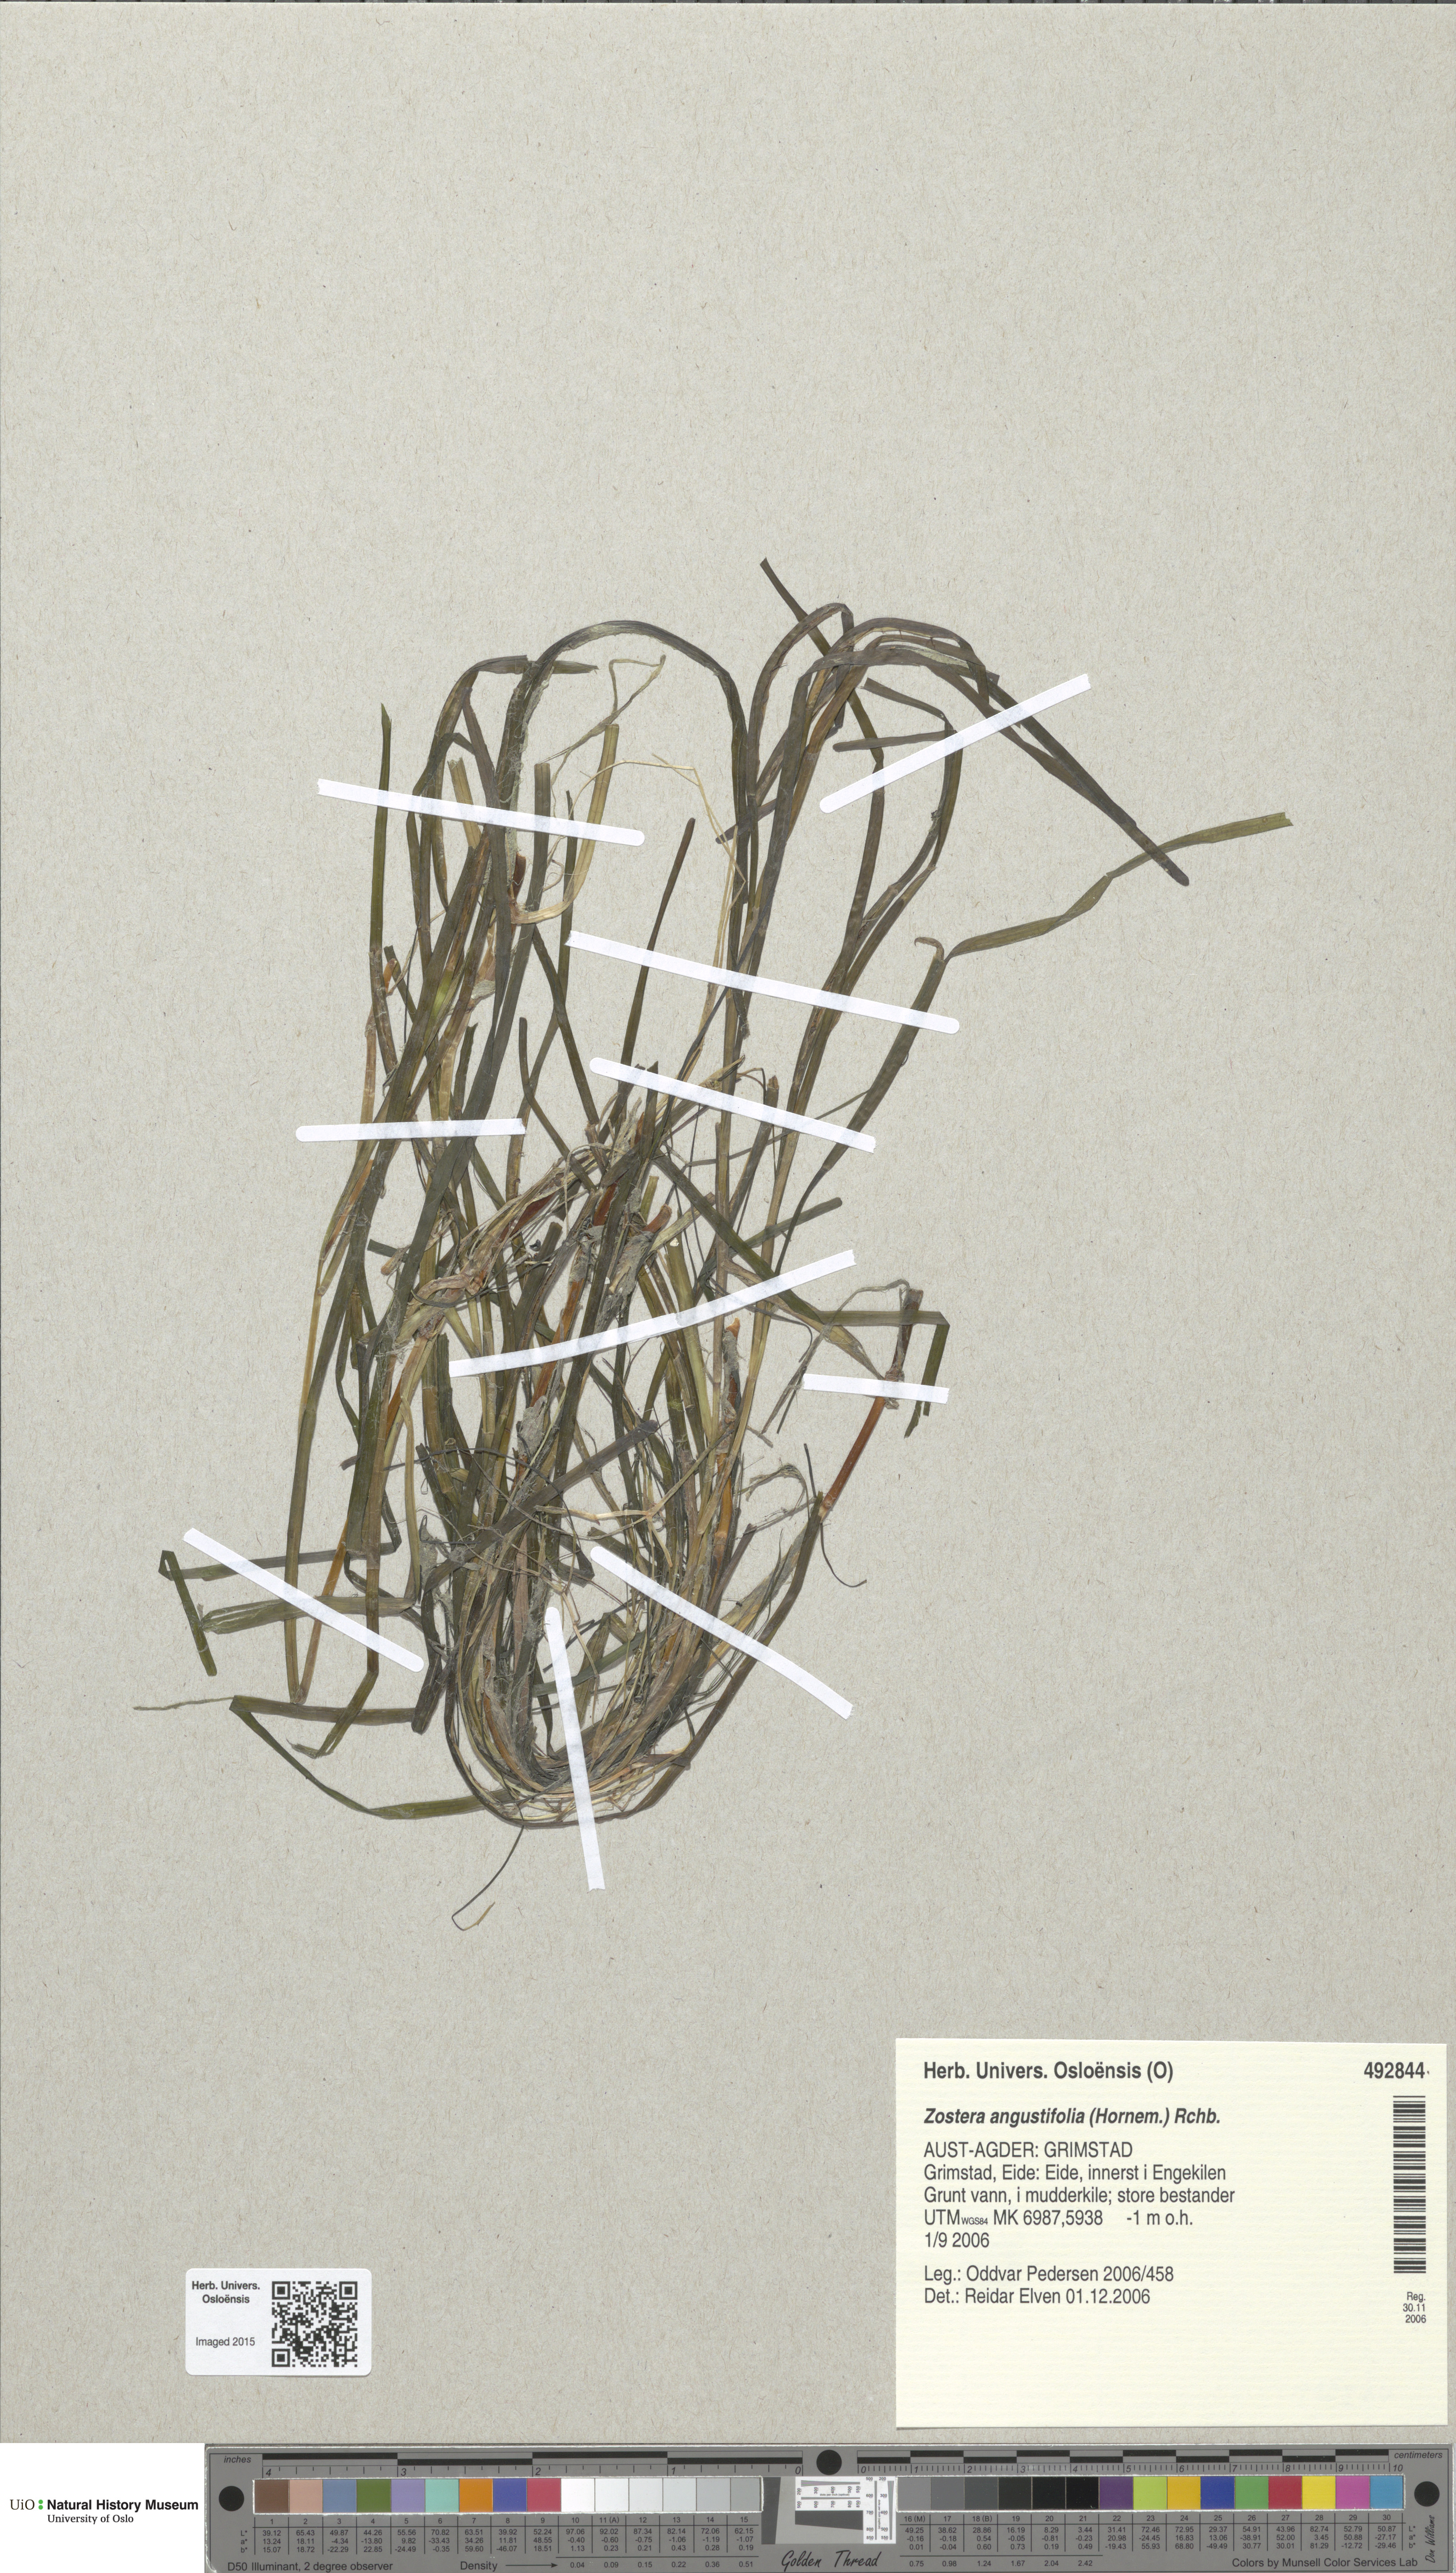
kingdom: Plantae
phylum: Tracheophyta
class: Liliopsida
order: Alismatales
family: Zosteraceae
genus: Zostera
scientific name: Zostera angustifolia
